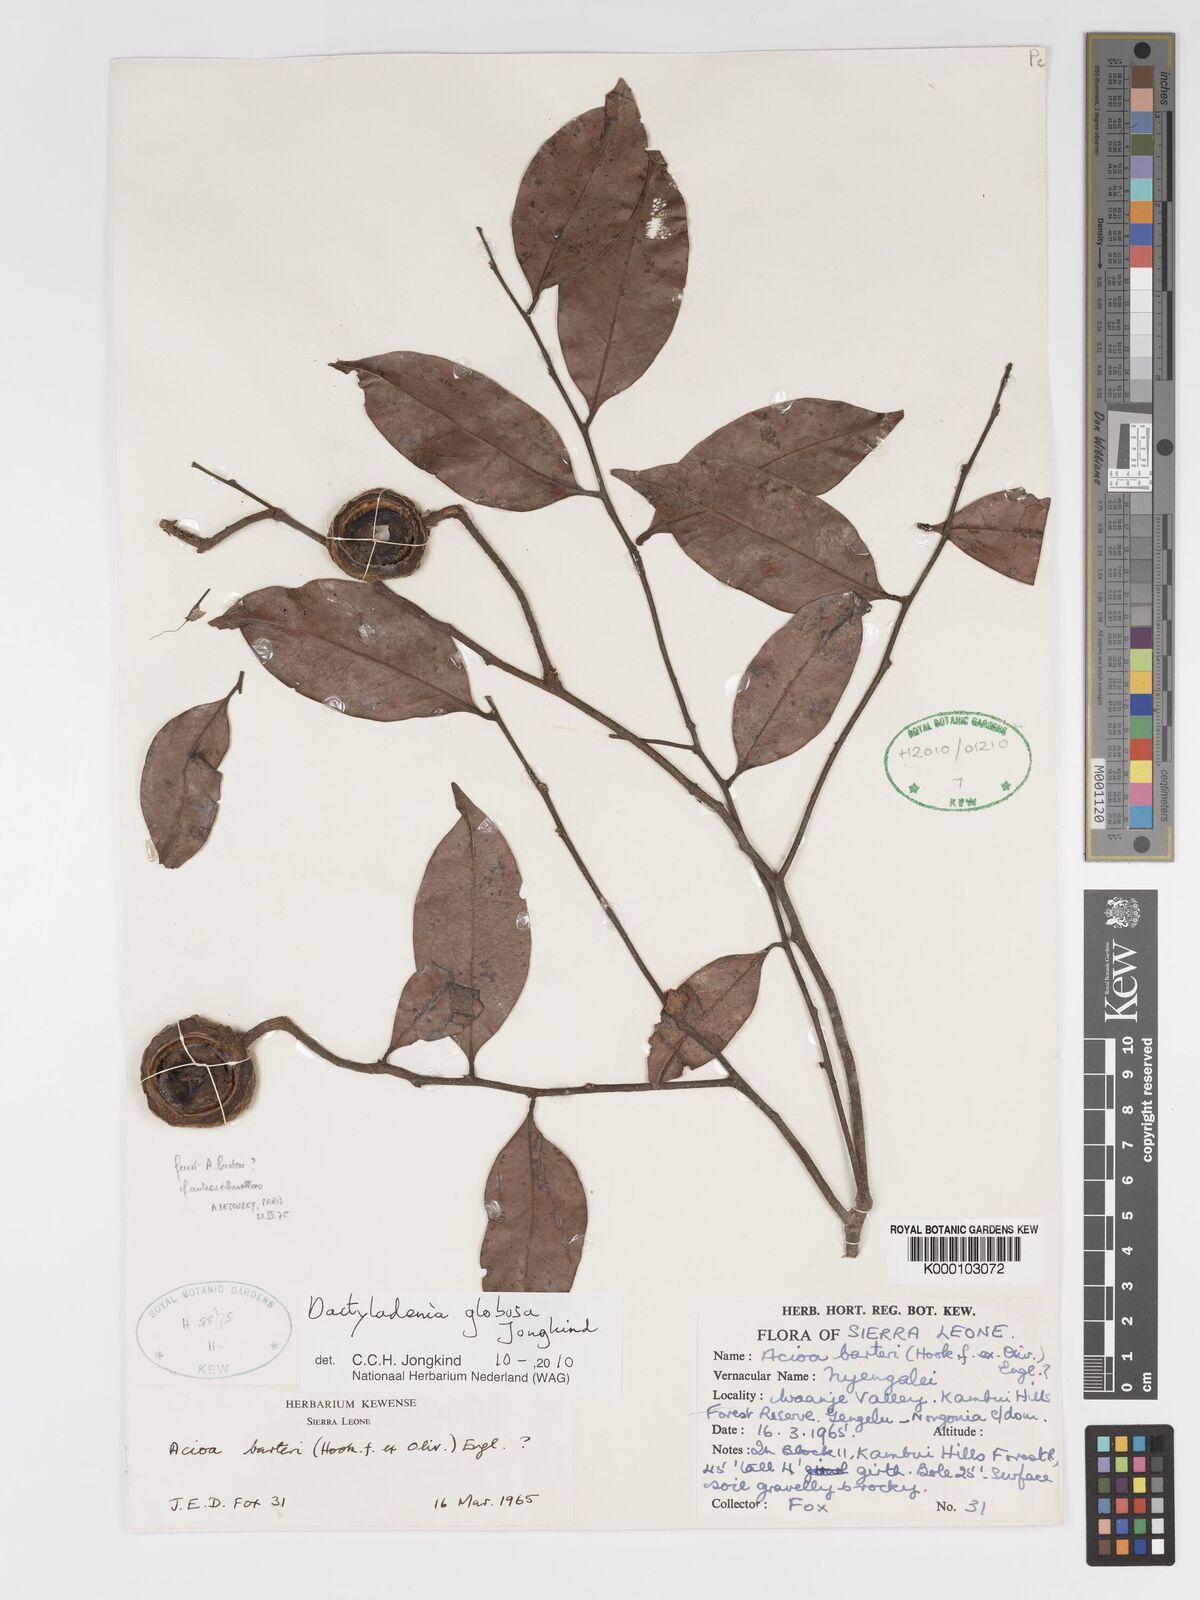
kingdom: Plantae
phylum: Tracheophyta
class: Magnoliopsida
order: Malpighiales
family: Chrysobalanaceae
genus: Dactyladenia
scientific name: Dactyladenia globosa
